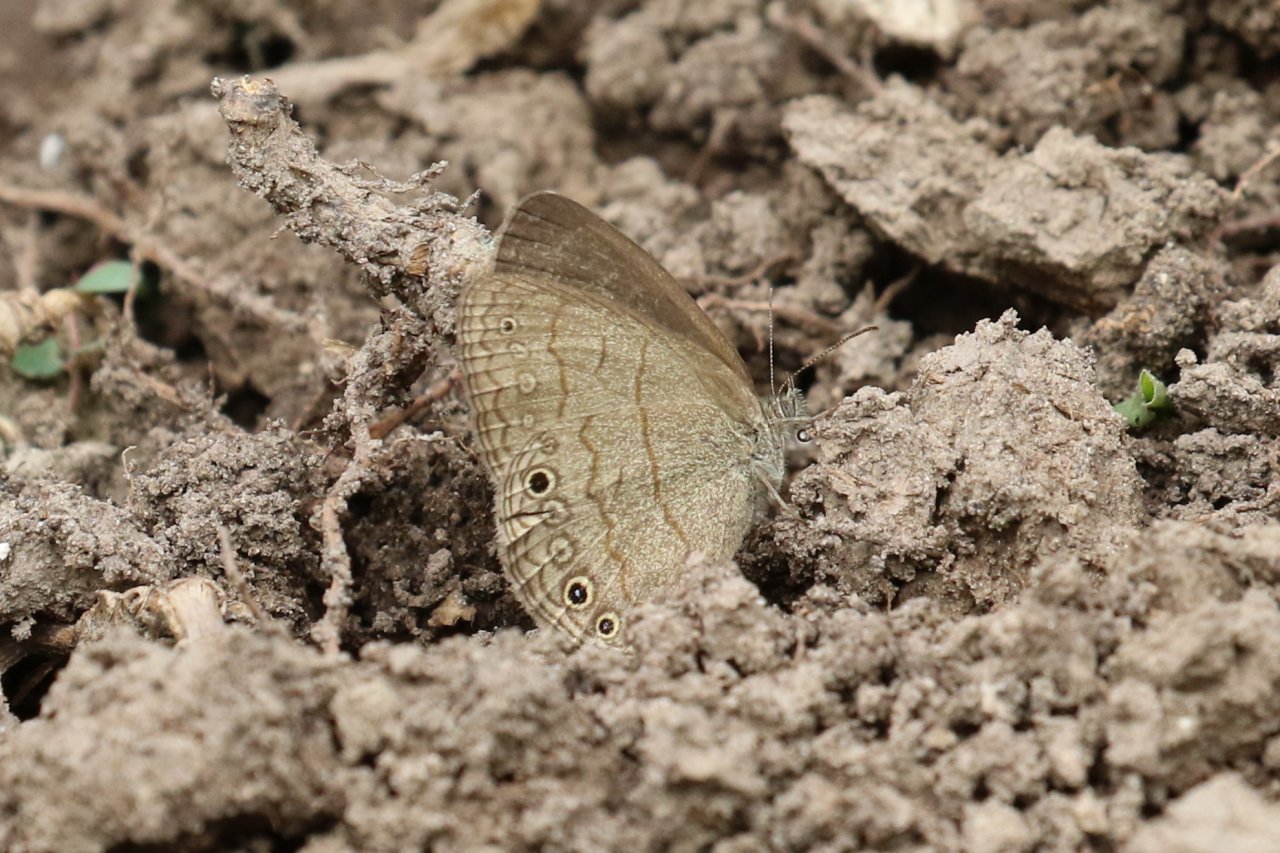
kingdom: Animalia
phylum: Arthropoda
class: Insecta
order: Lepidoptera
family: Nymphalidae
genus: Hermeuptychia
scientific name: Hermeuptychia hermybius
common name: South Texas Satyr
